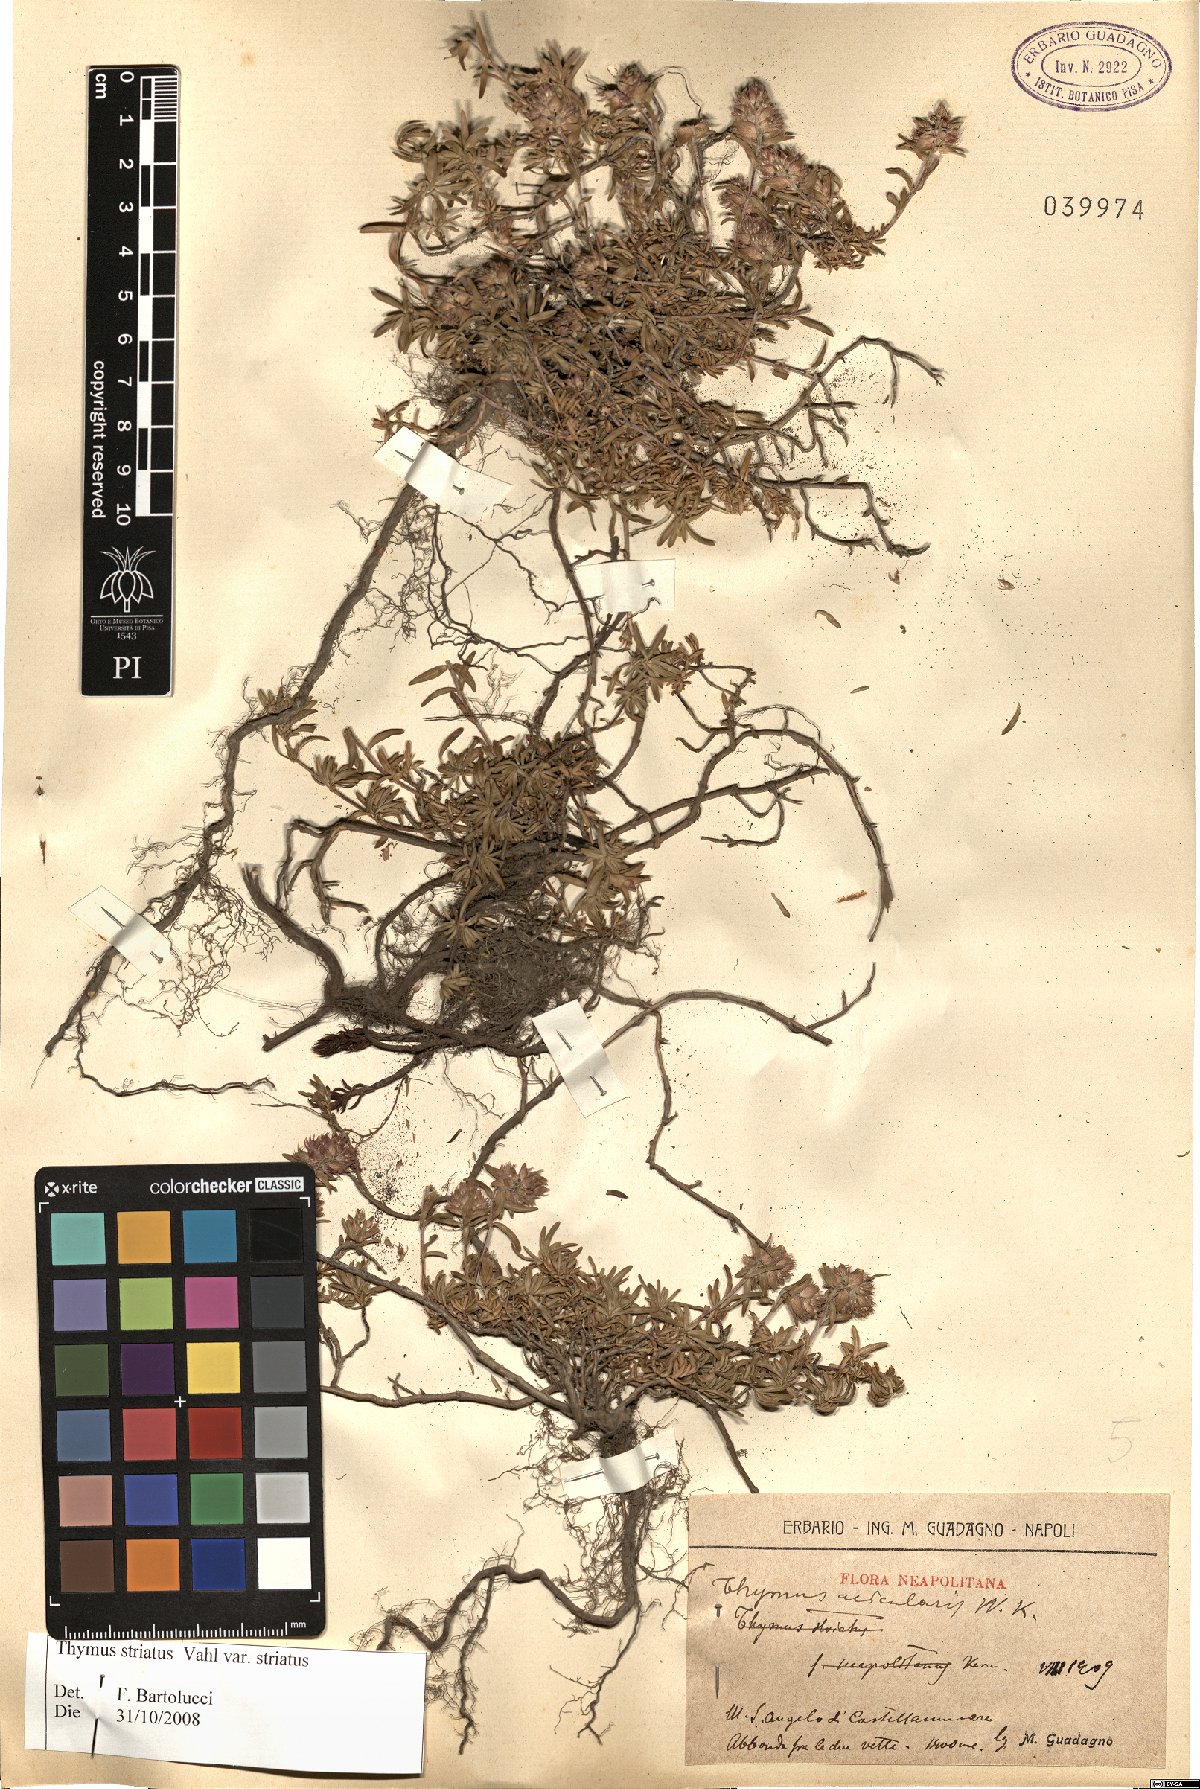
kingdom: Plantae
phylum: Tracheophyta
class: Magnoliopsida
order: Lamiales
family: Lamiaceae
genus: Thymus
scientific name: Thymus striatus
